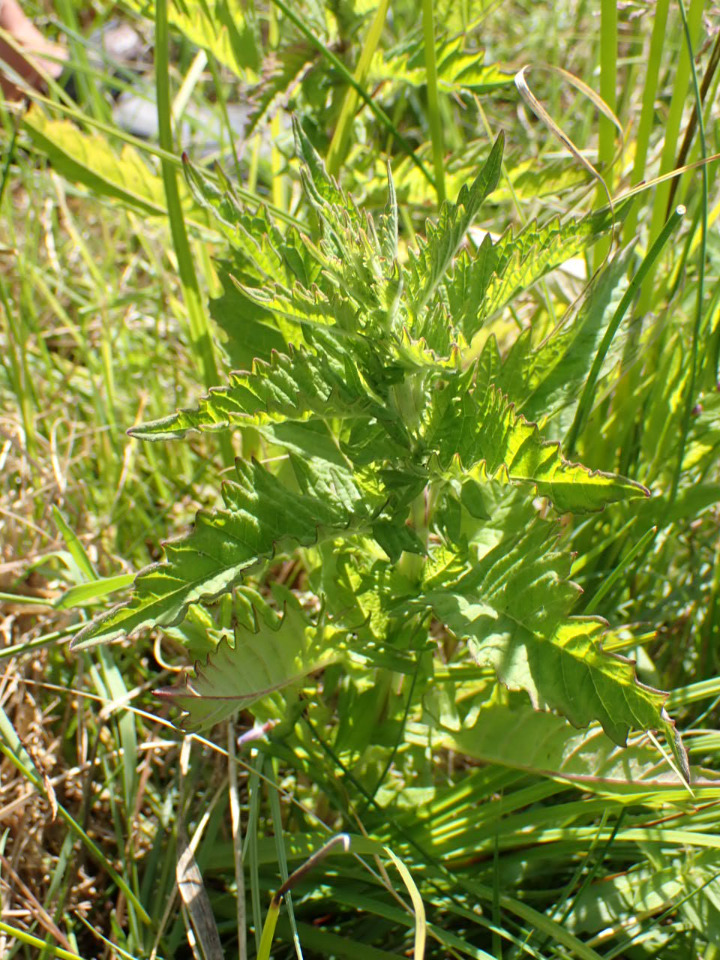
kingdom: Plantae
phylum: Tracheophyta
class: Magnoliopsida
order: Lamiales
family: Lamiaceae
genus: Lycopus
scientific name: Lycopus europaeus
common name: Sværtevæld
